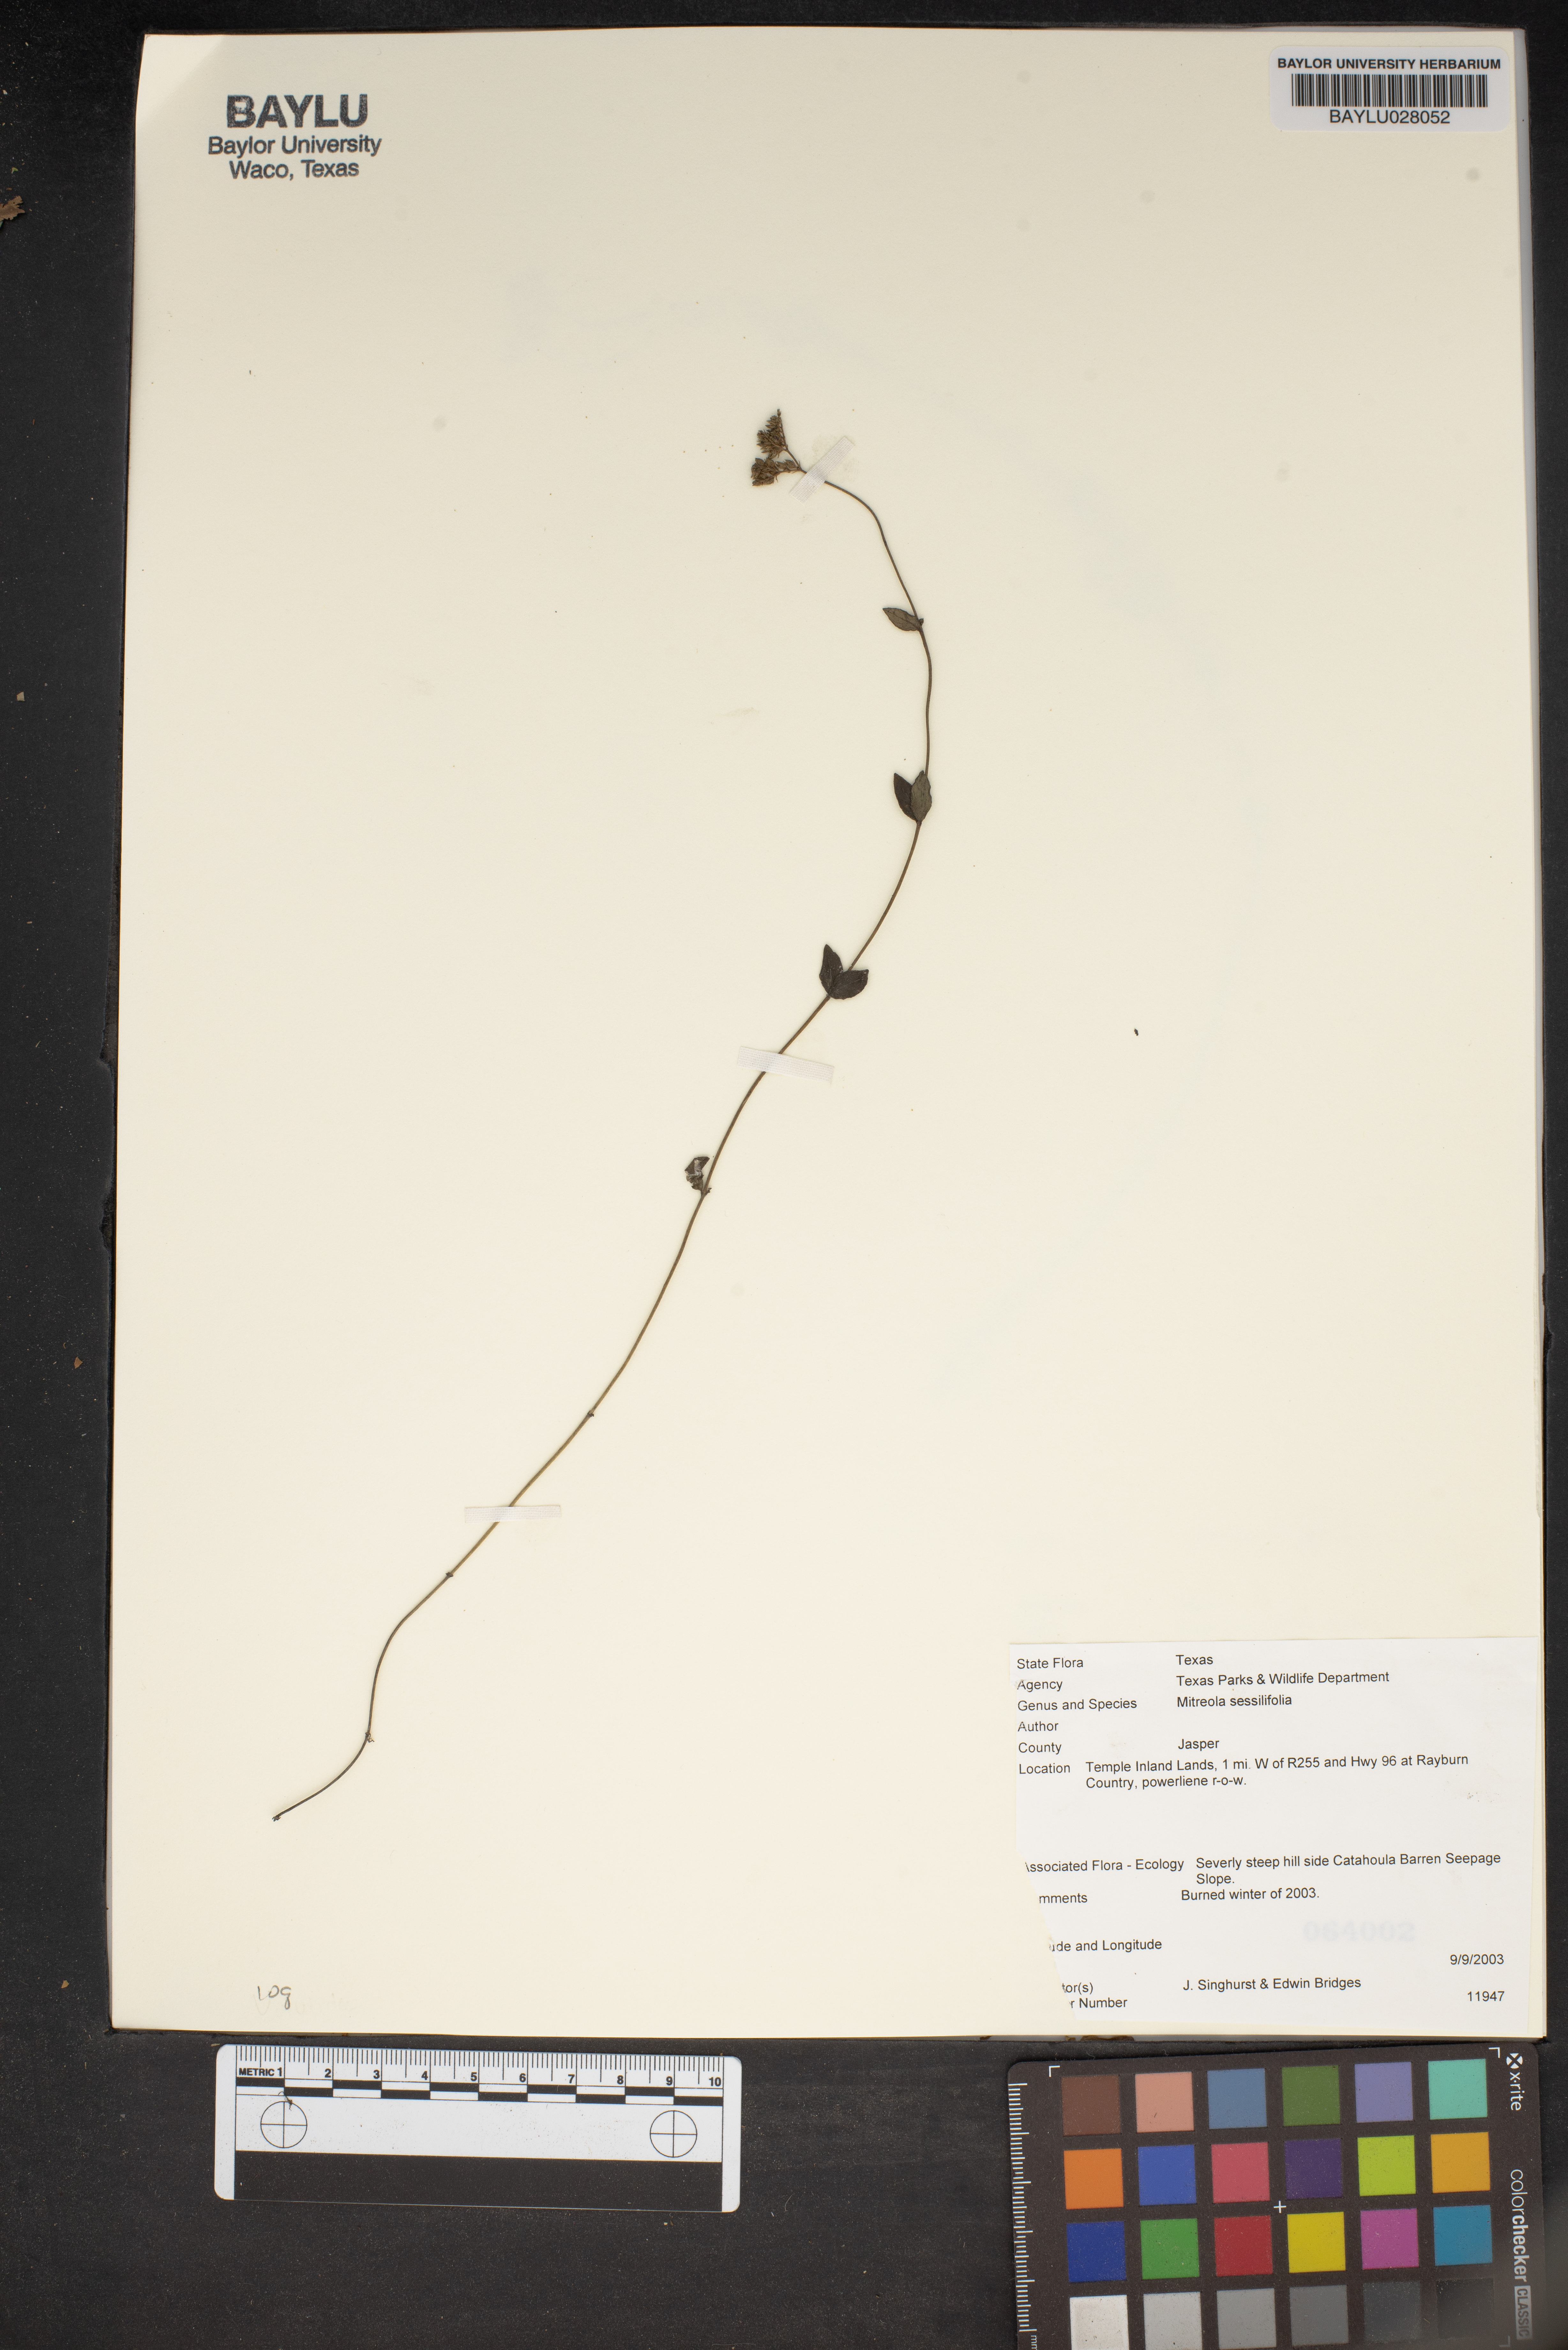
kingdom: Plantae
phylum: Tracheophyta
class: Magnoliopsida
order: Gentianales
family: Loganiaceae
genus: Mitreola
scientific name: Mitreola sessilifolia
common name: Swamp hornpod
